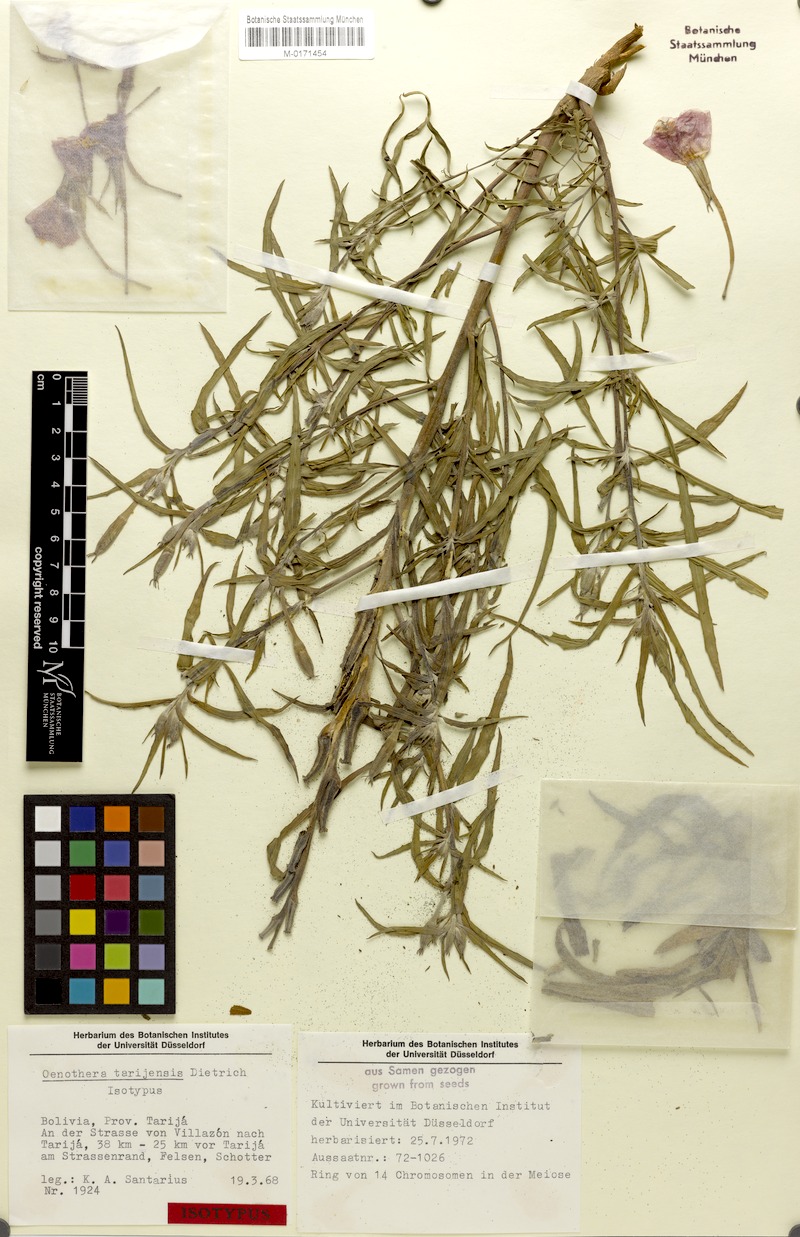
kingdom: Plantae
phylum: Tracheophyta
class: Magnoliopsida
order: Myrtales
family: Onagraceae
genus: Oenothera
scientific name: Oenothera tarijensis
